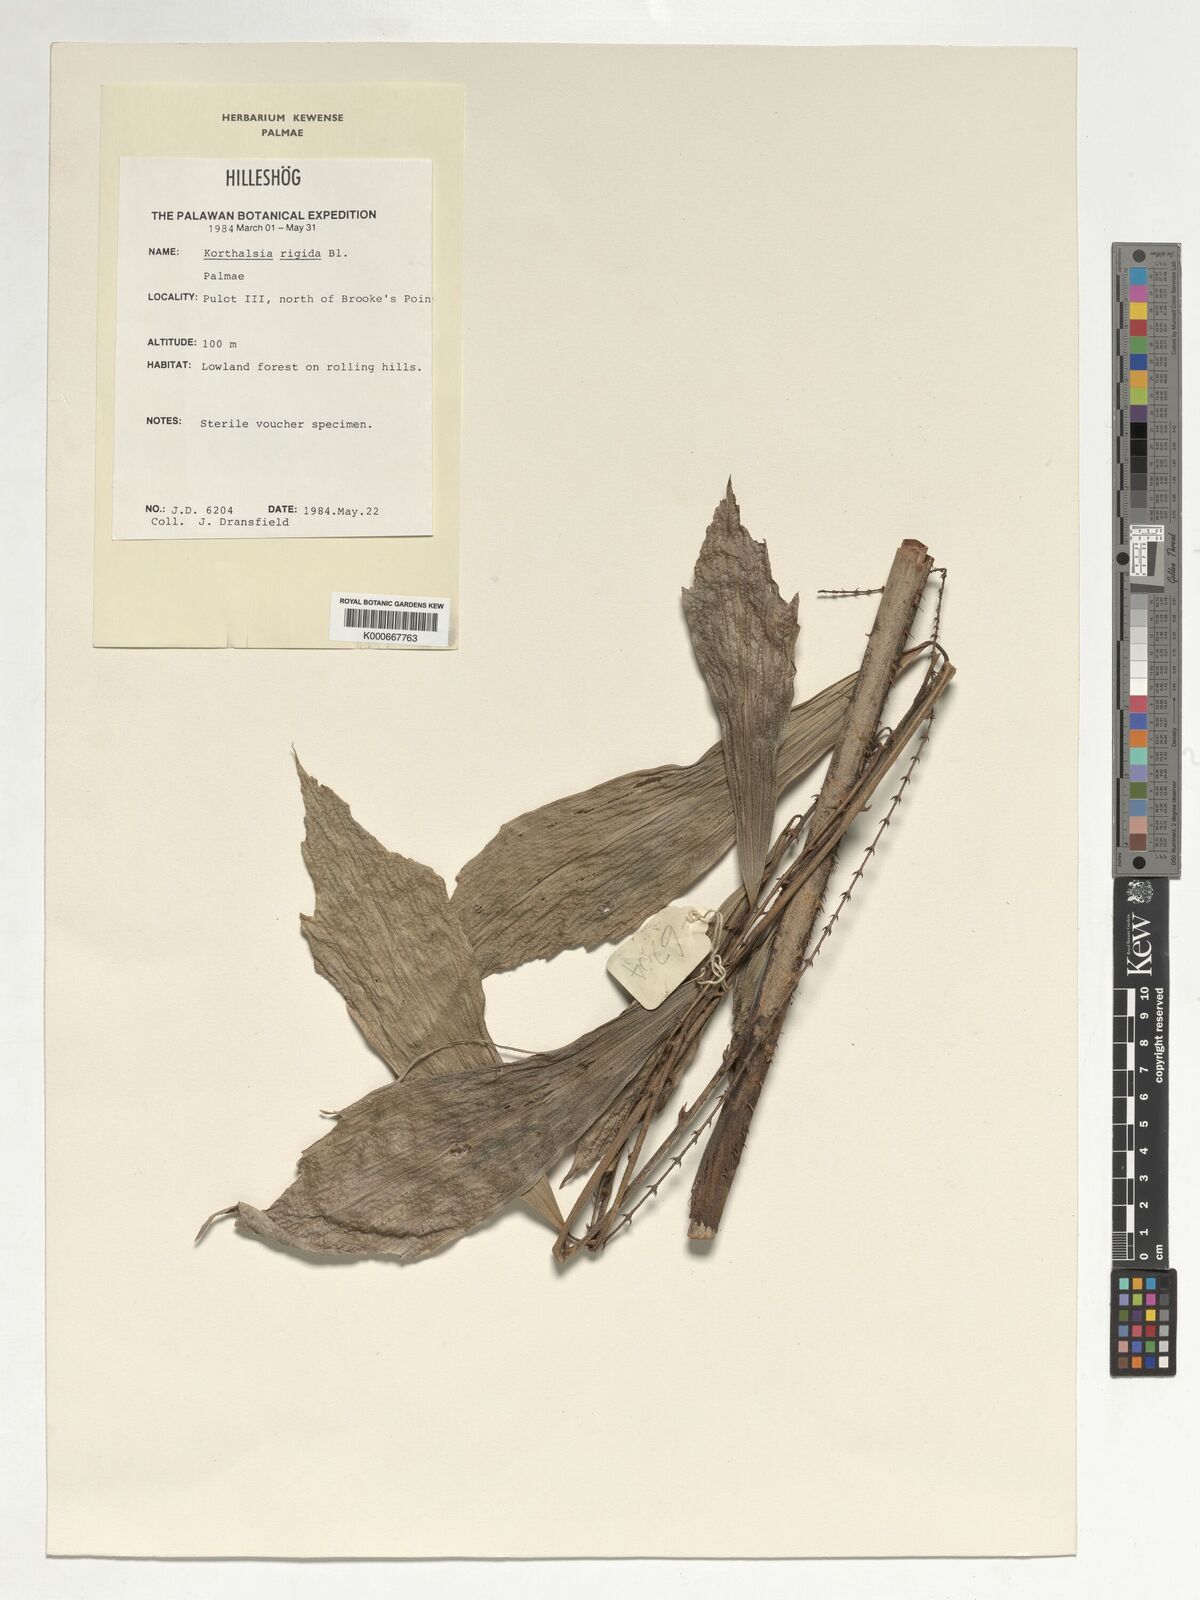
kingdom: Plantae
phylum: Tracheophyta
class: Liliopsida
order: Arecales
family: Arecaceae
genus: Korthalsia
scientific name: Korthalsia rigida
